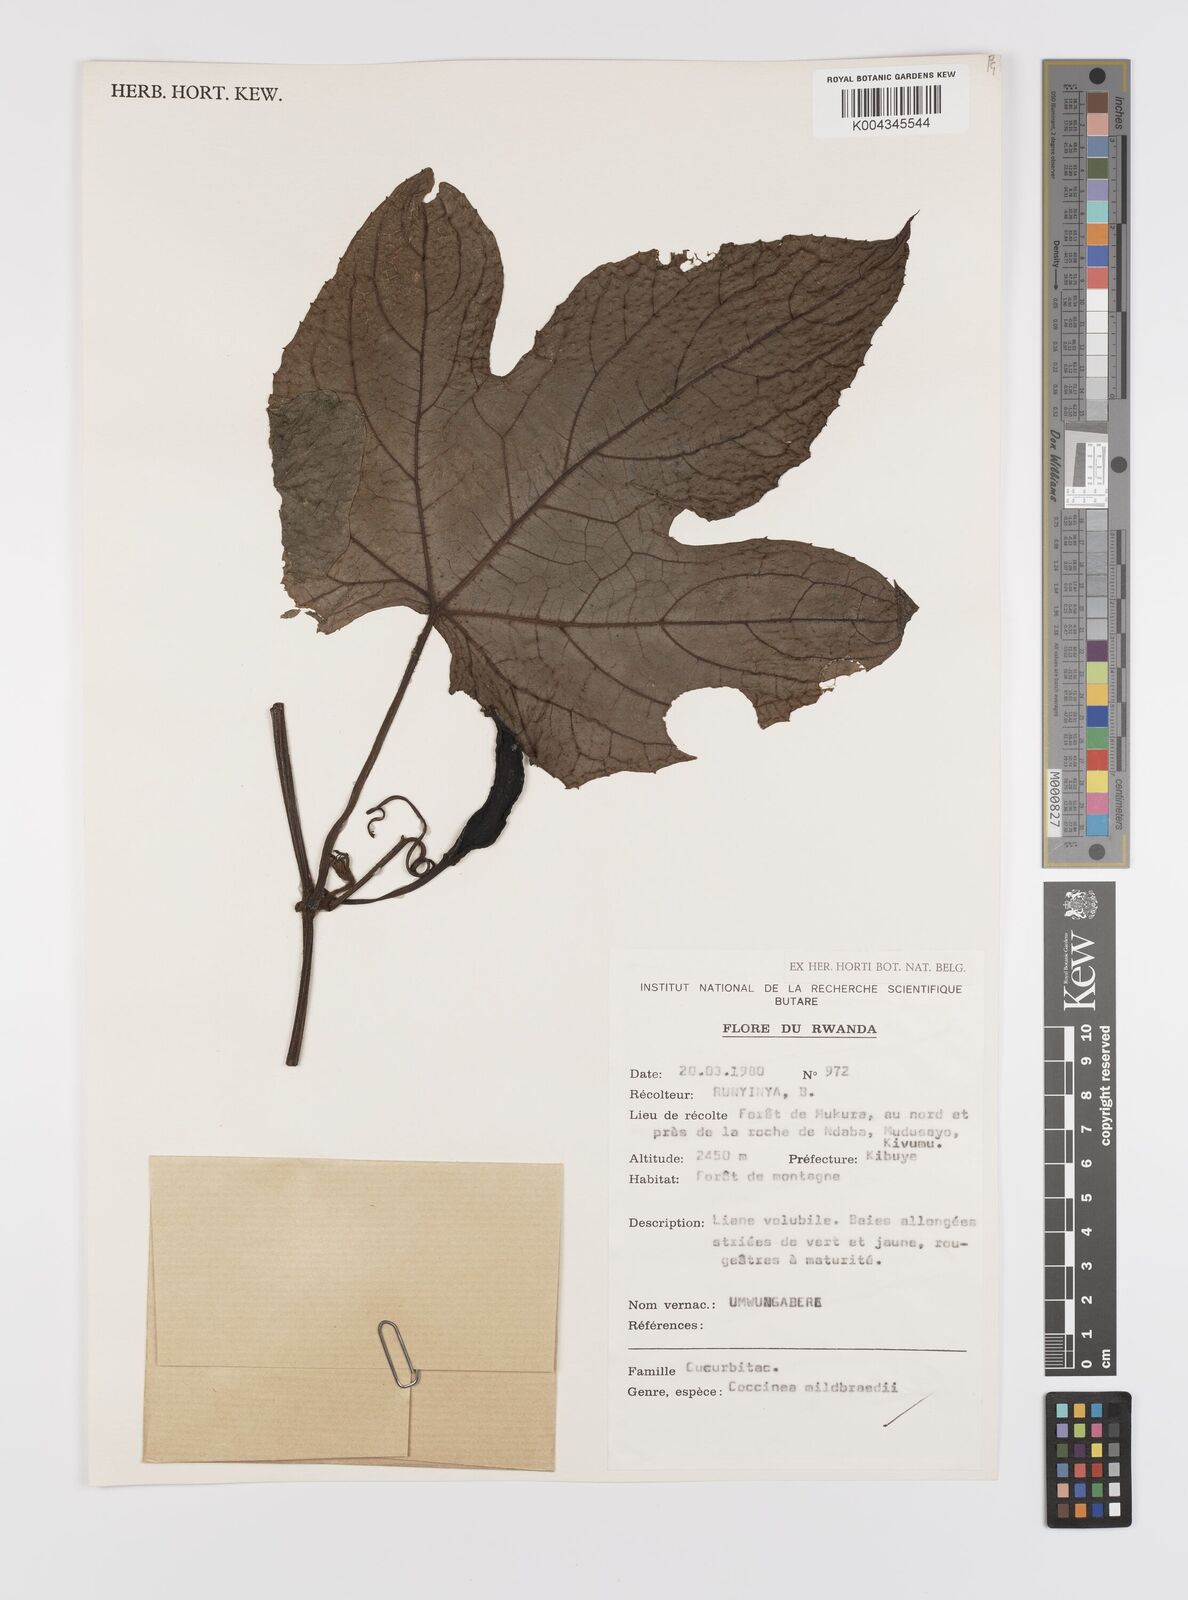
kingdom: Plantae
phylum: Tracheophyta
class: Magnoliopsida
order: Cucurbitales
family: Cucurbitaceae
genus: Coccinia
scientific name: Coccinia mildbraedii
